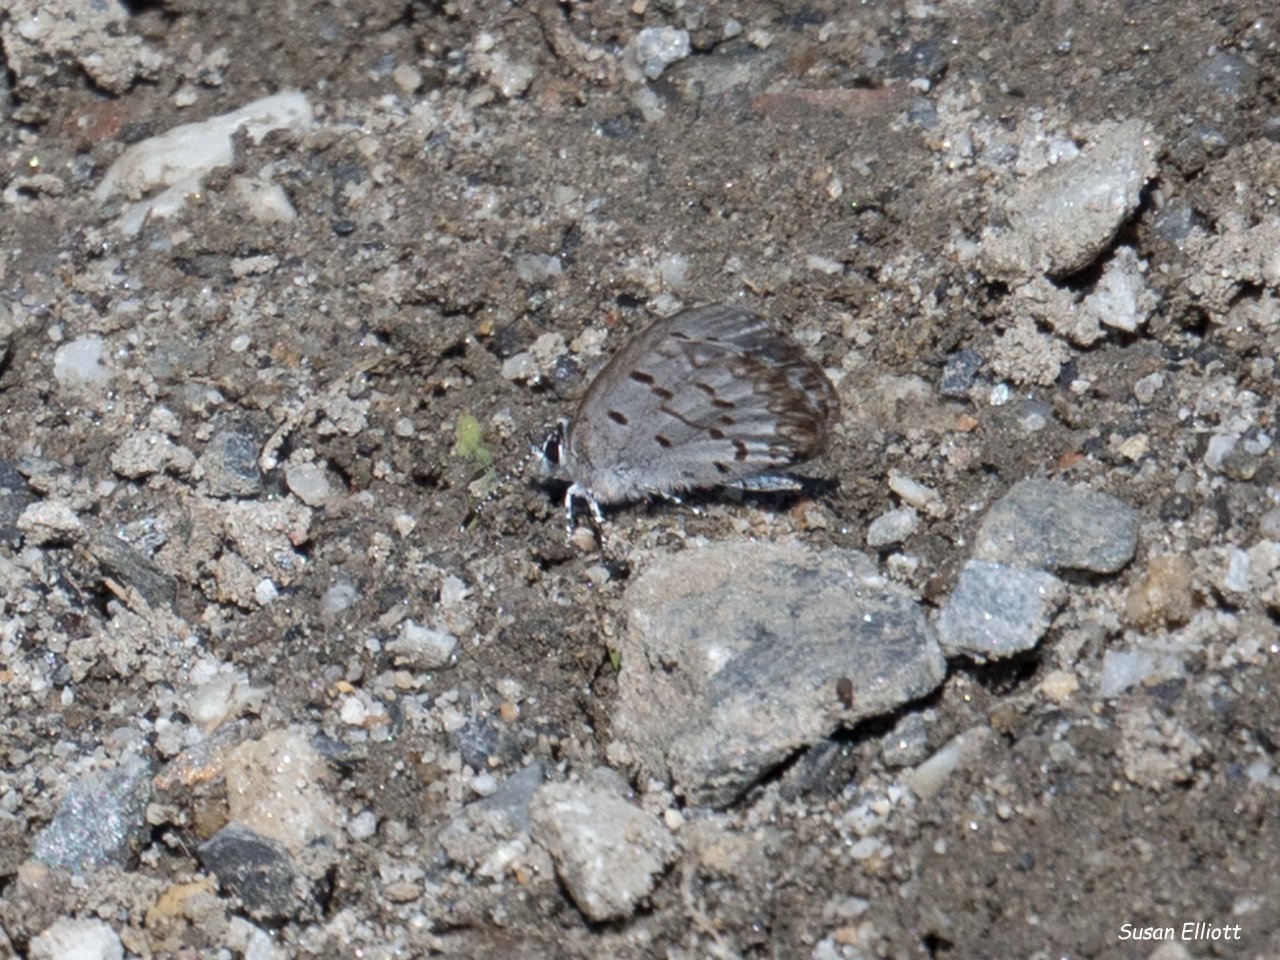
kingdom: Animalia
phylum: Arthropoda
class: Insecta
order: Lepidoptera
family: Lycaenidae
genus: Celastrina
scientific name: Celastrina lucia
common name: Northern Spring Azure
